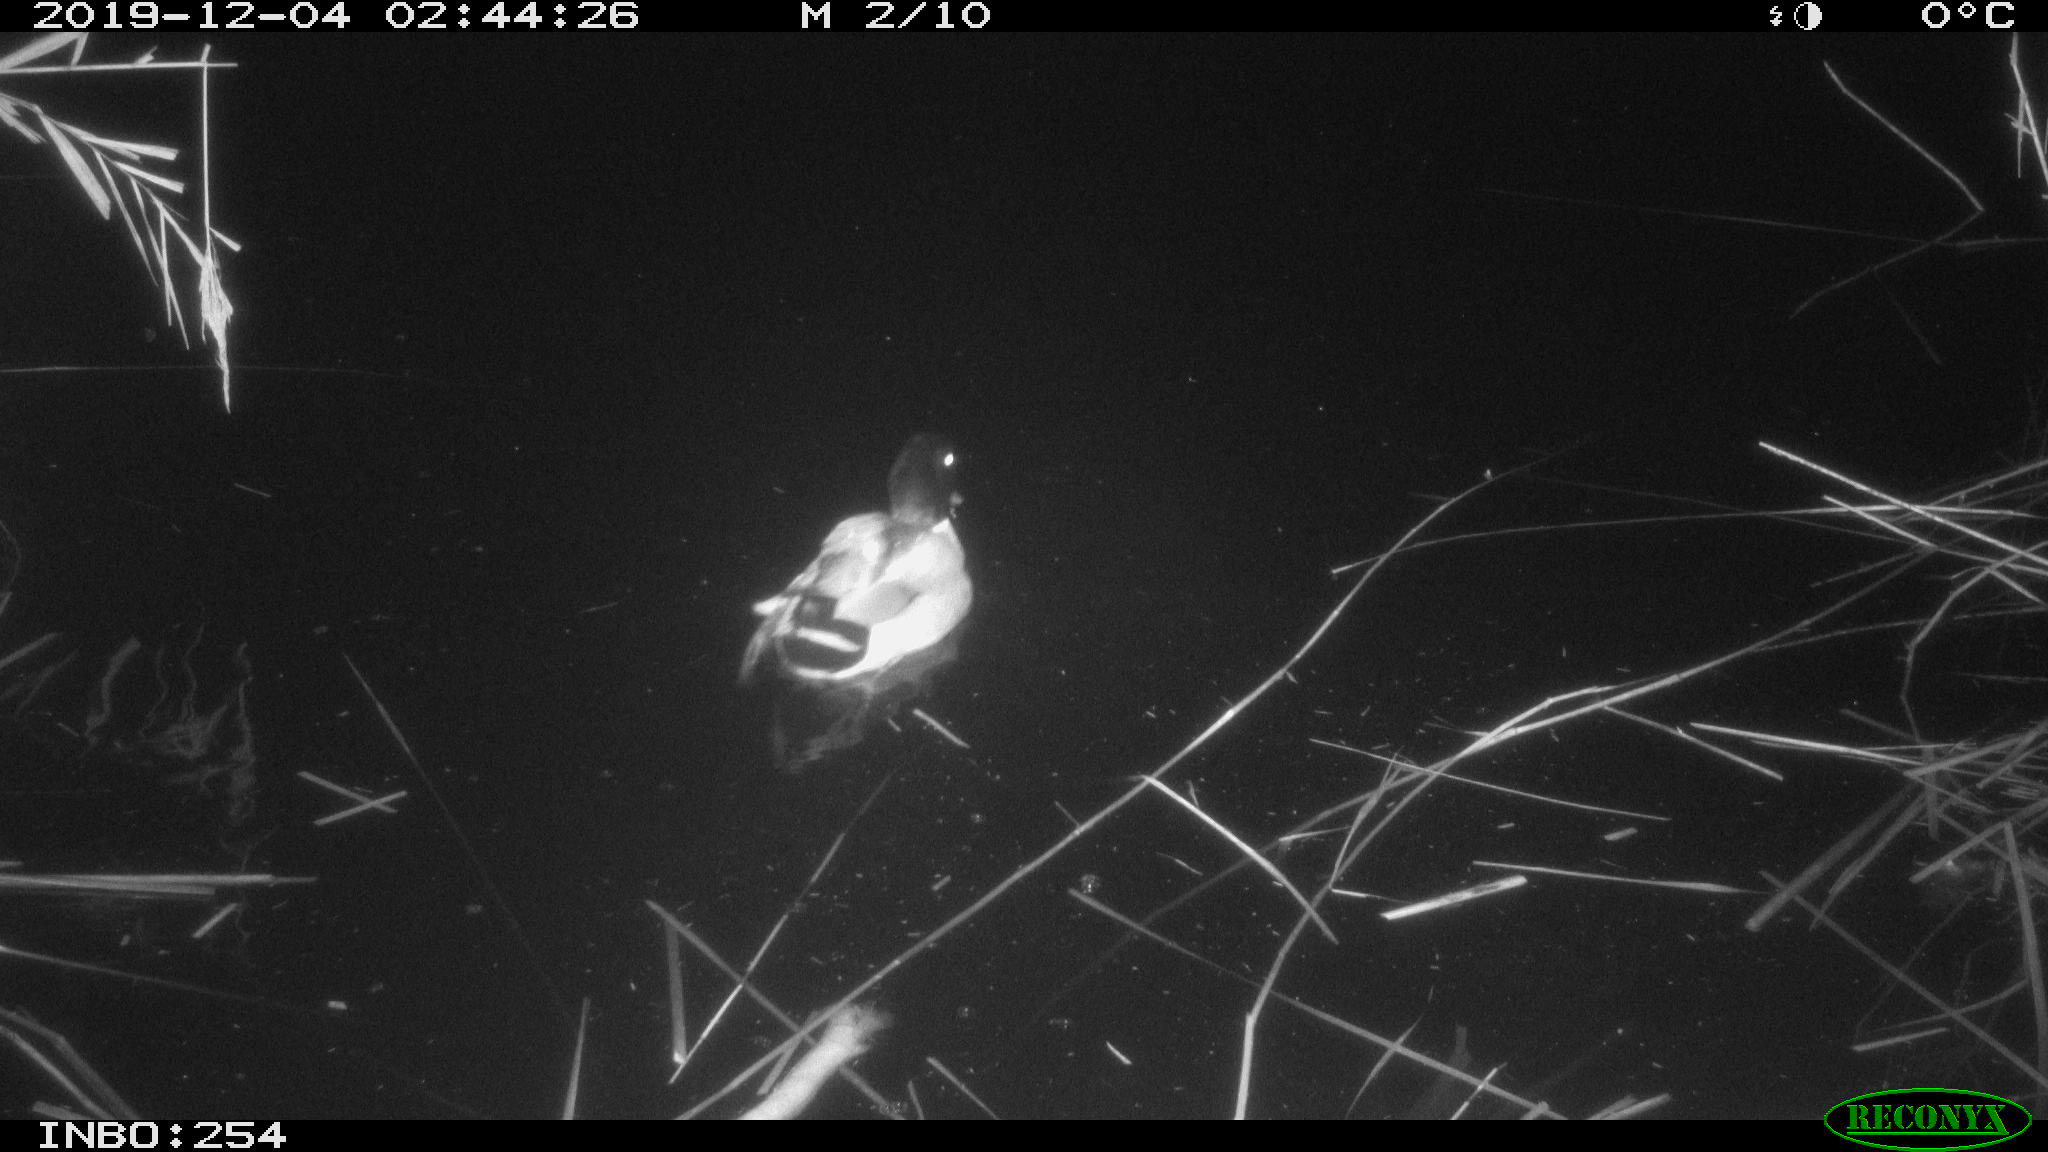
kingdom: Animalia
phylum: Chordata
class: Aves
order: Anseriformes
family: Anatidae
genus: Anas
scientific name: Anas platyrhynchos
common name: Mallard
